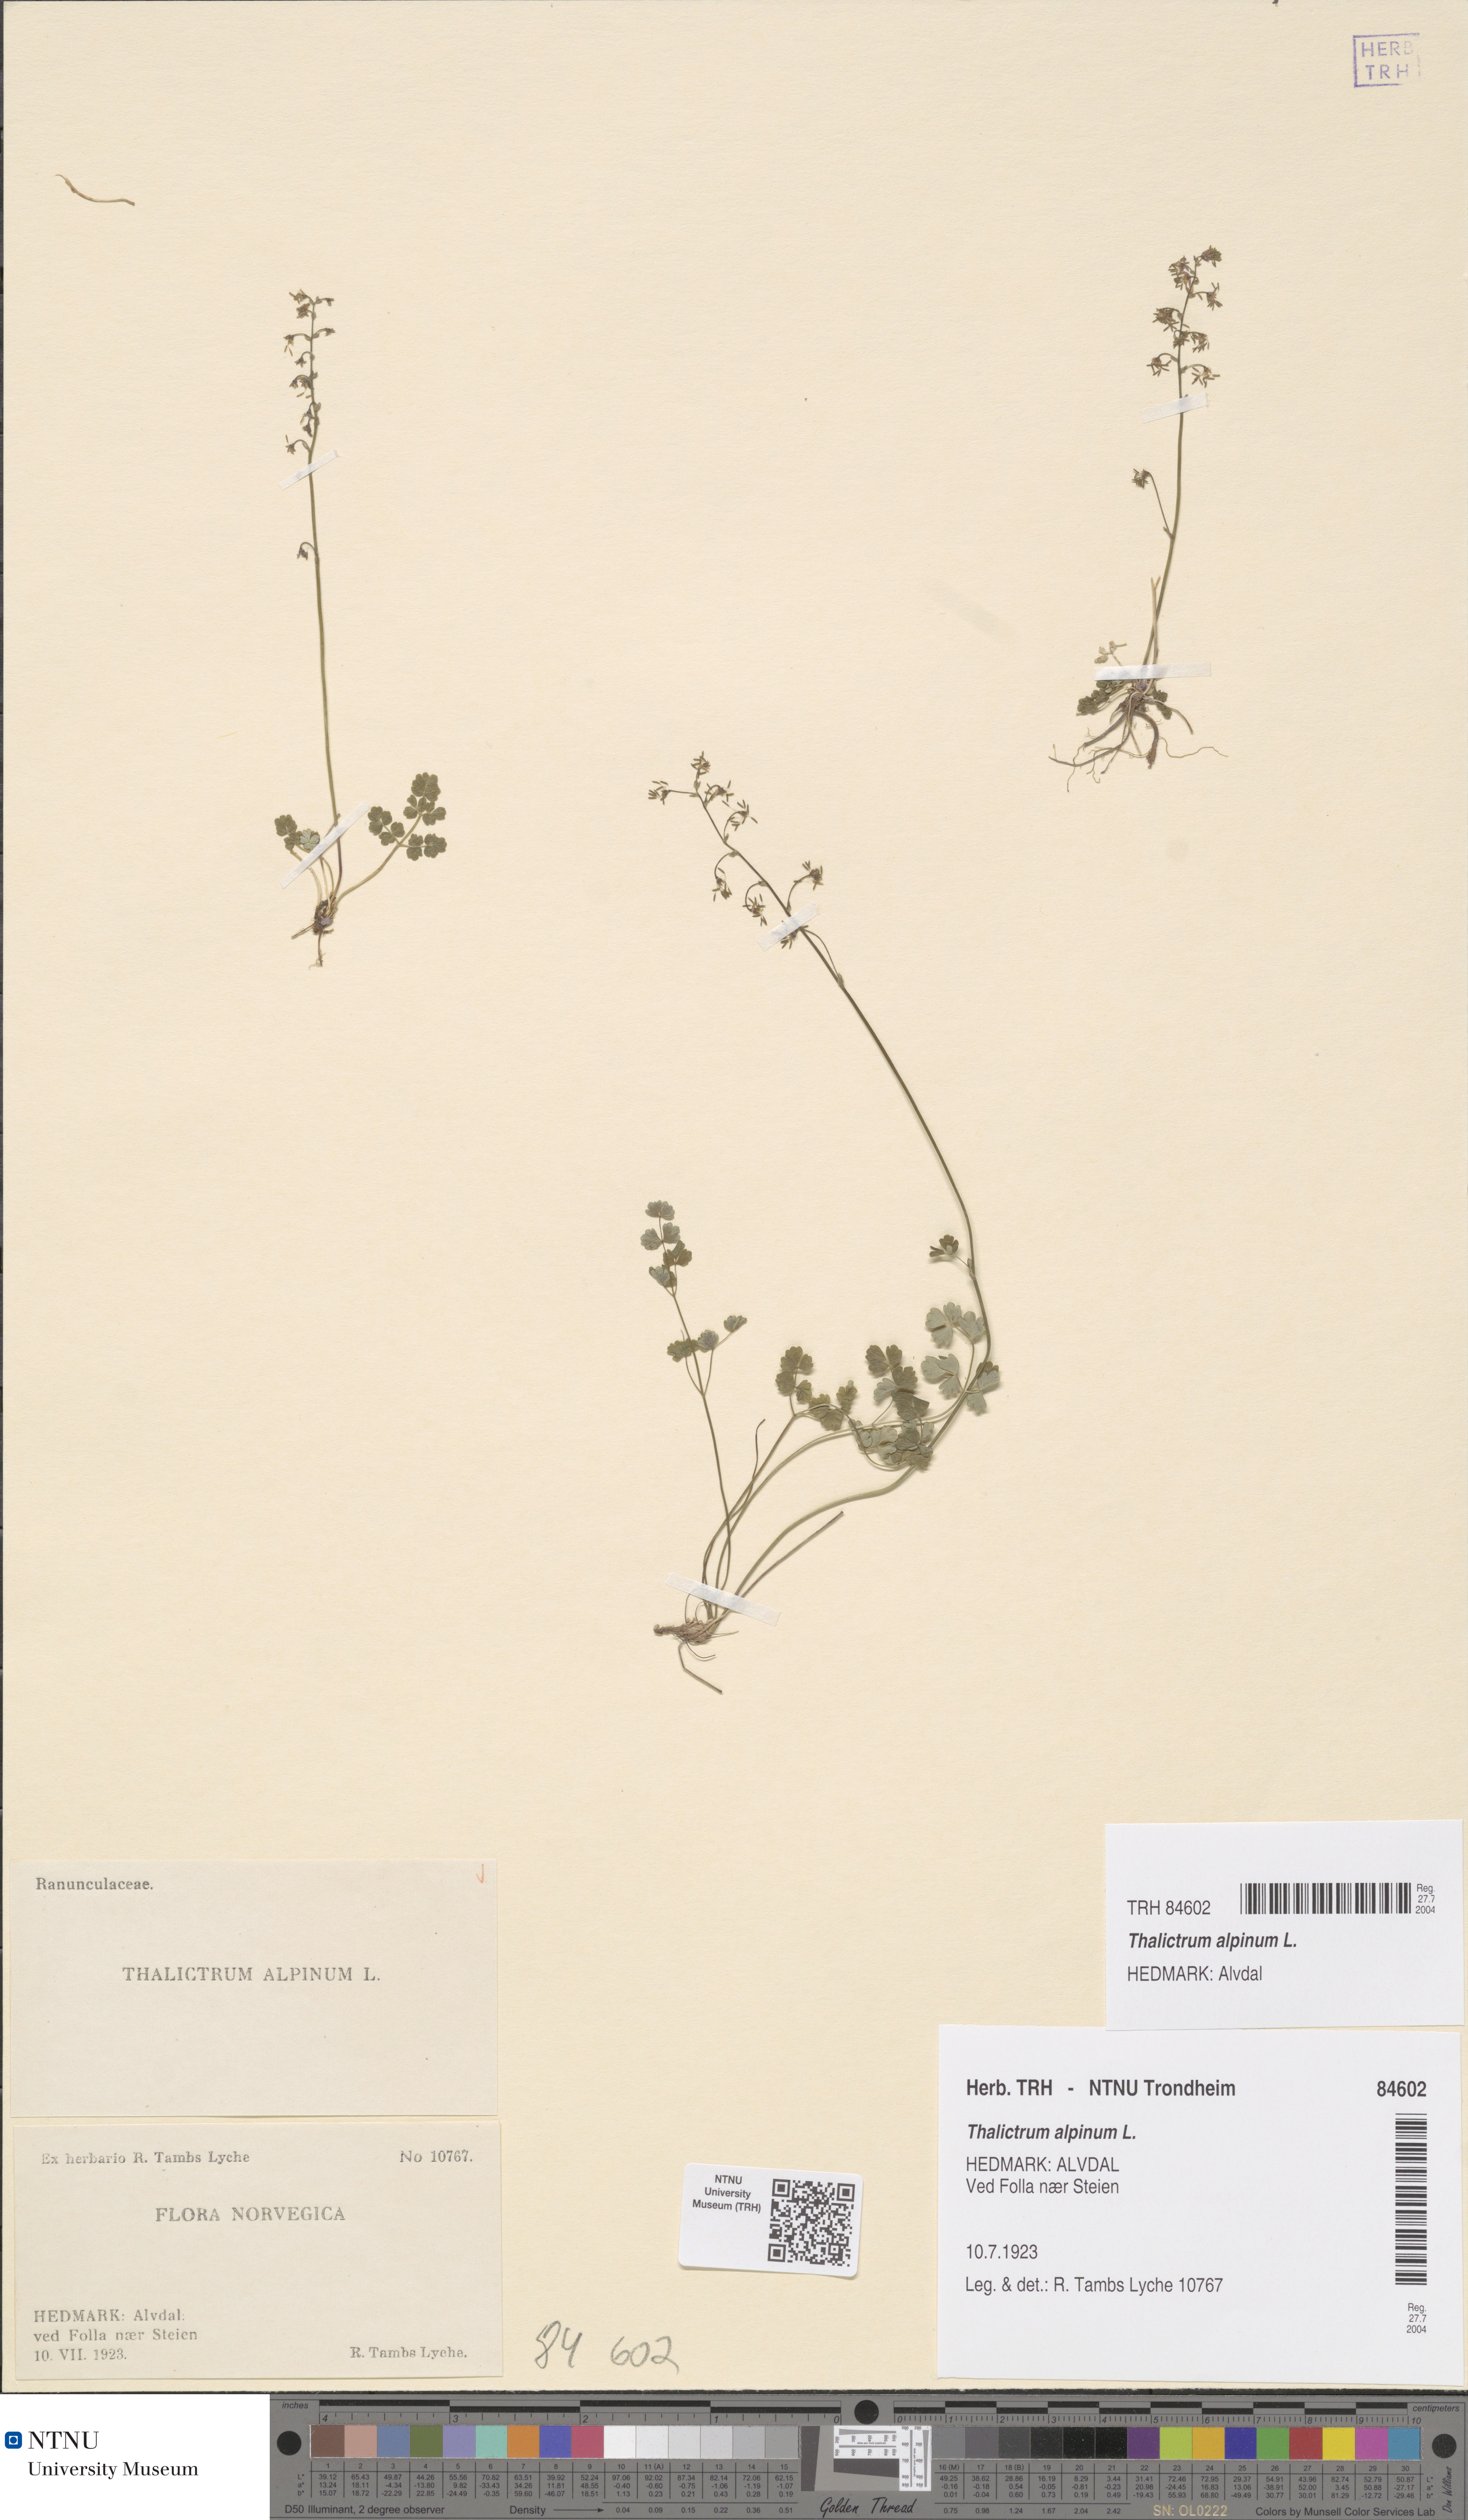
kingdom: Plantae
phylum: Tracheophyta
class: Magnoliopsida
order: Ranunculales
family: Ranunculaceae
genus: Thalictrum
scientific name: Thalictrum alpinum
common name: Alpine meadow-rue
